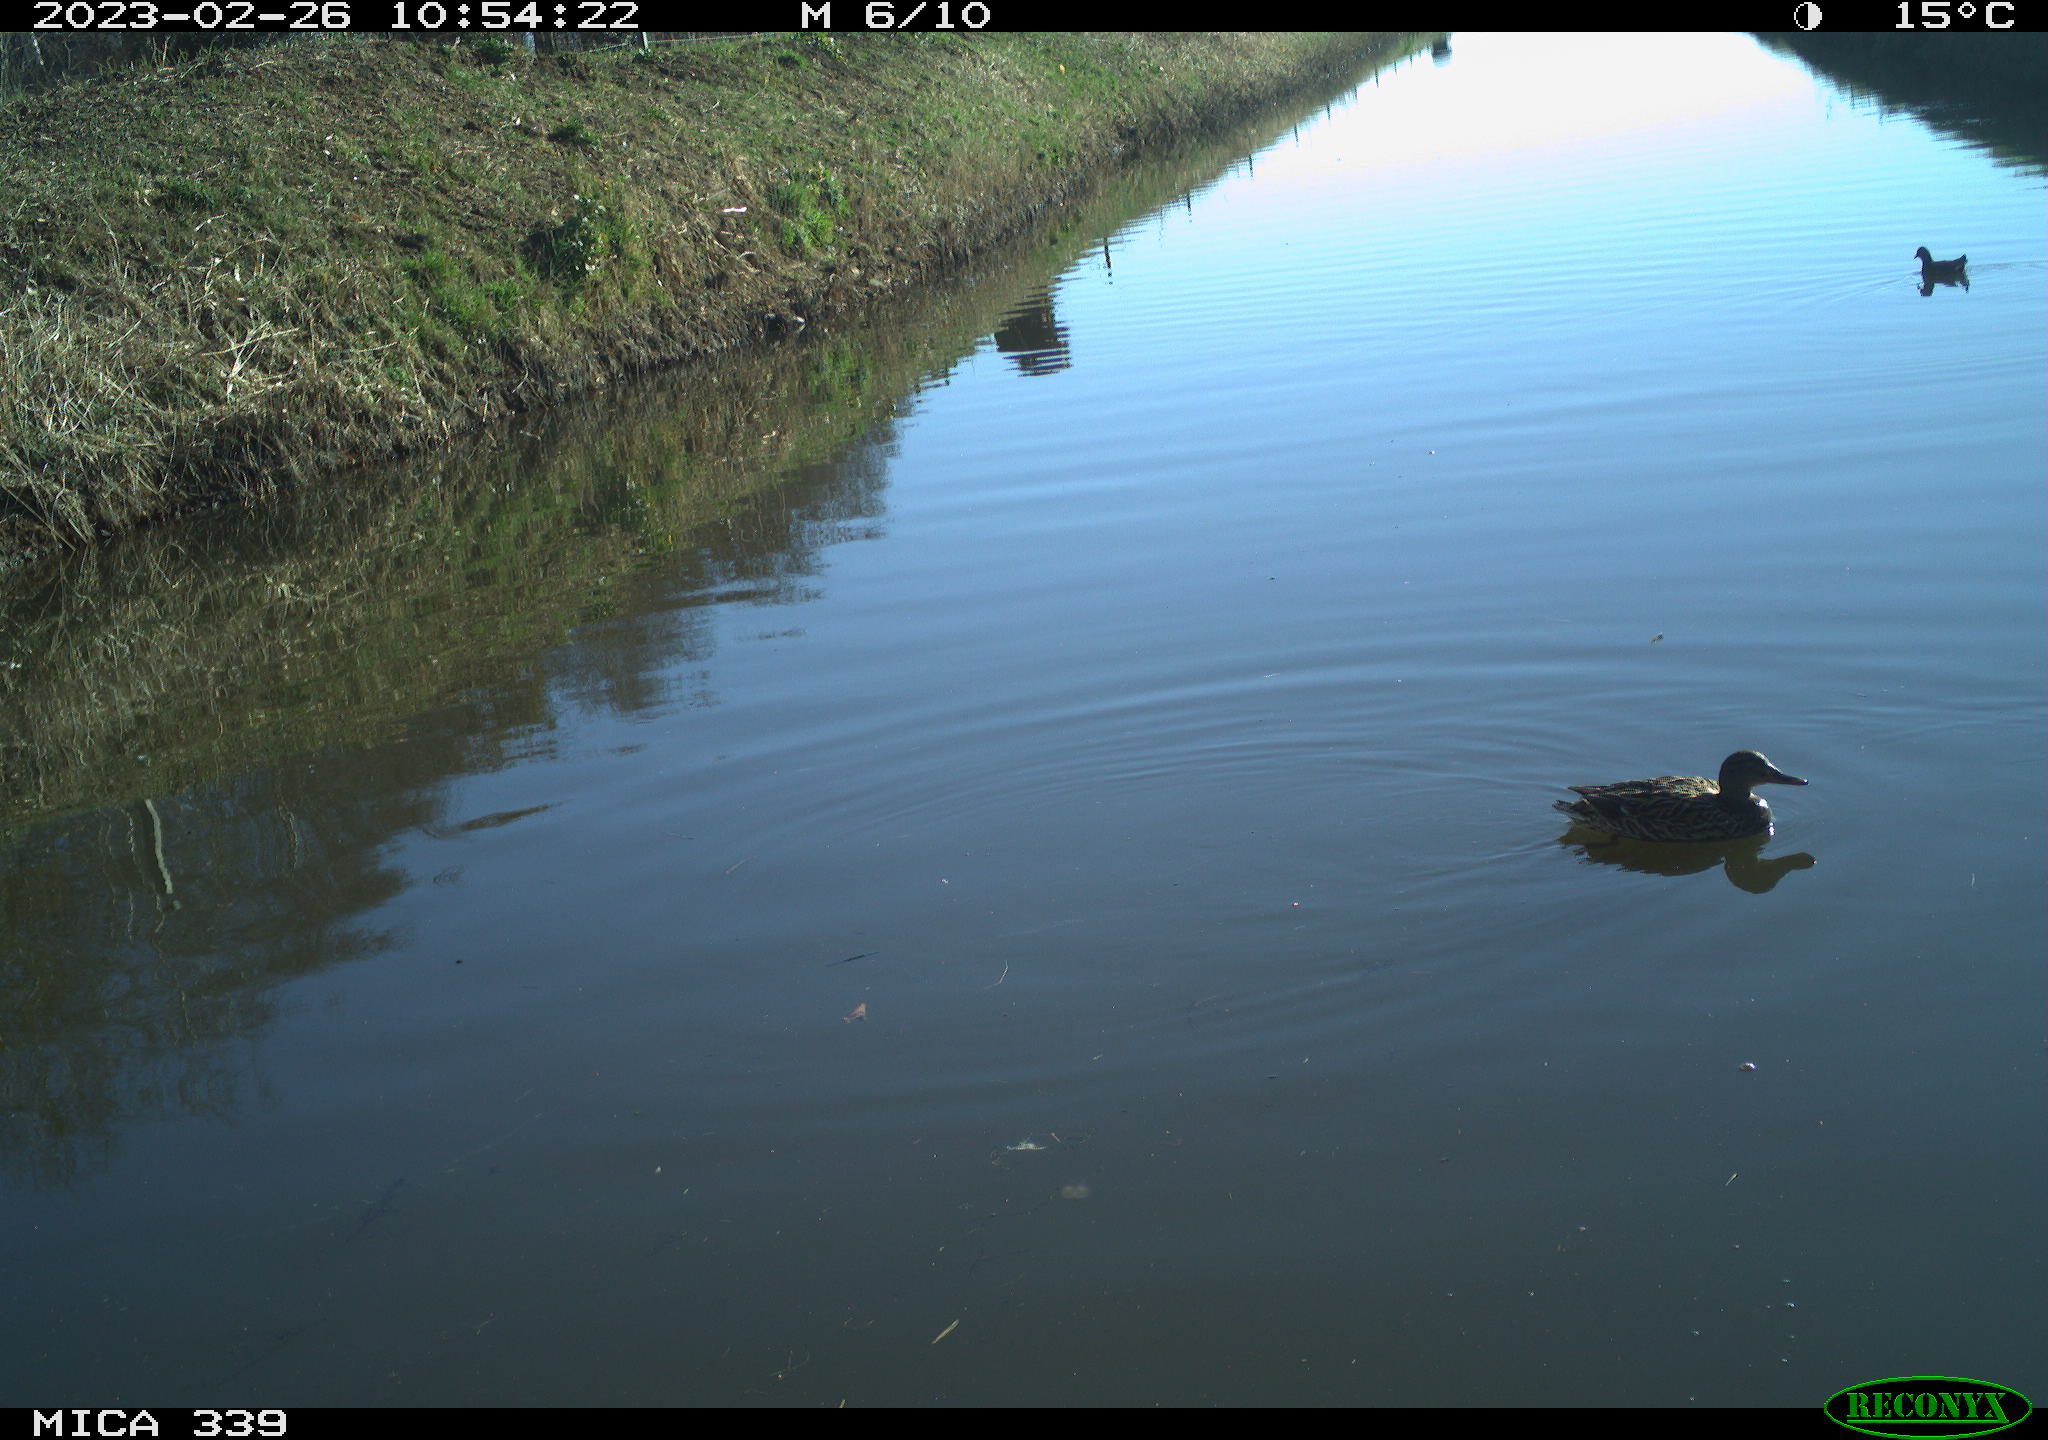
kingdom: Animalia
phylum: Chordata
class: Aves
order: Anseriformes
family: Anatidae
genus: Anas
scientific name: Anas
